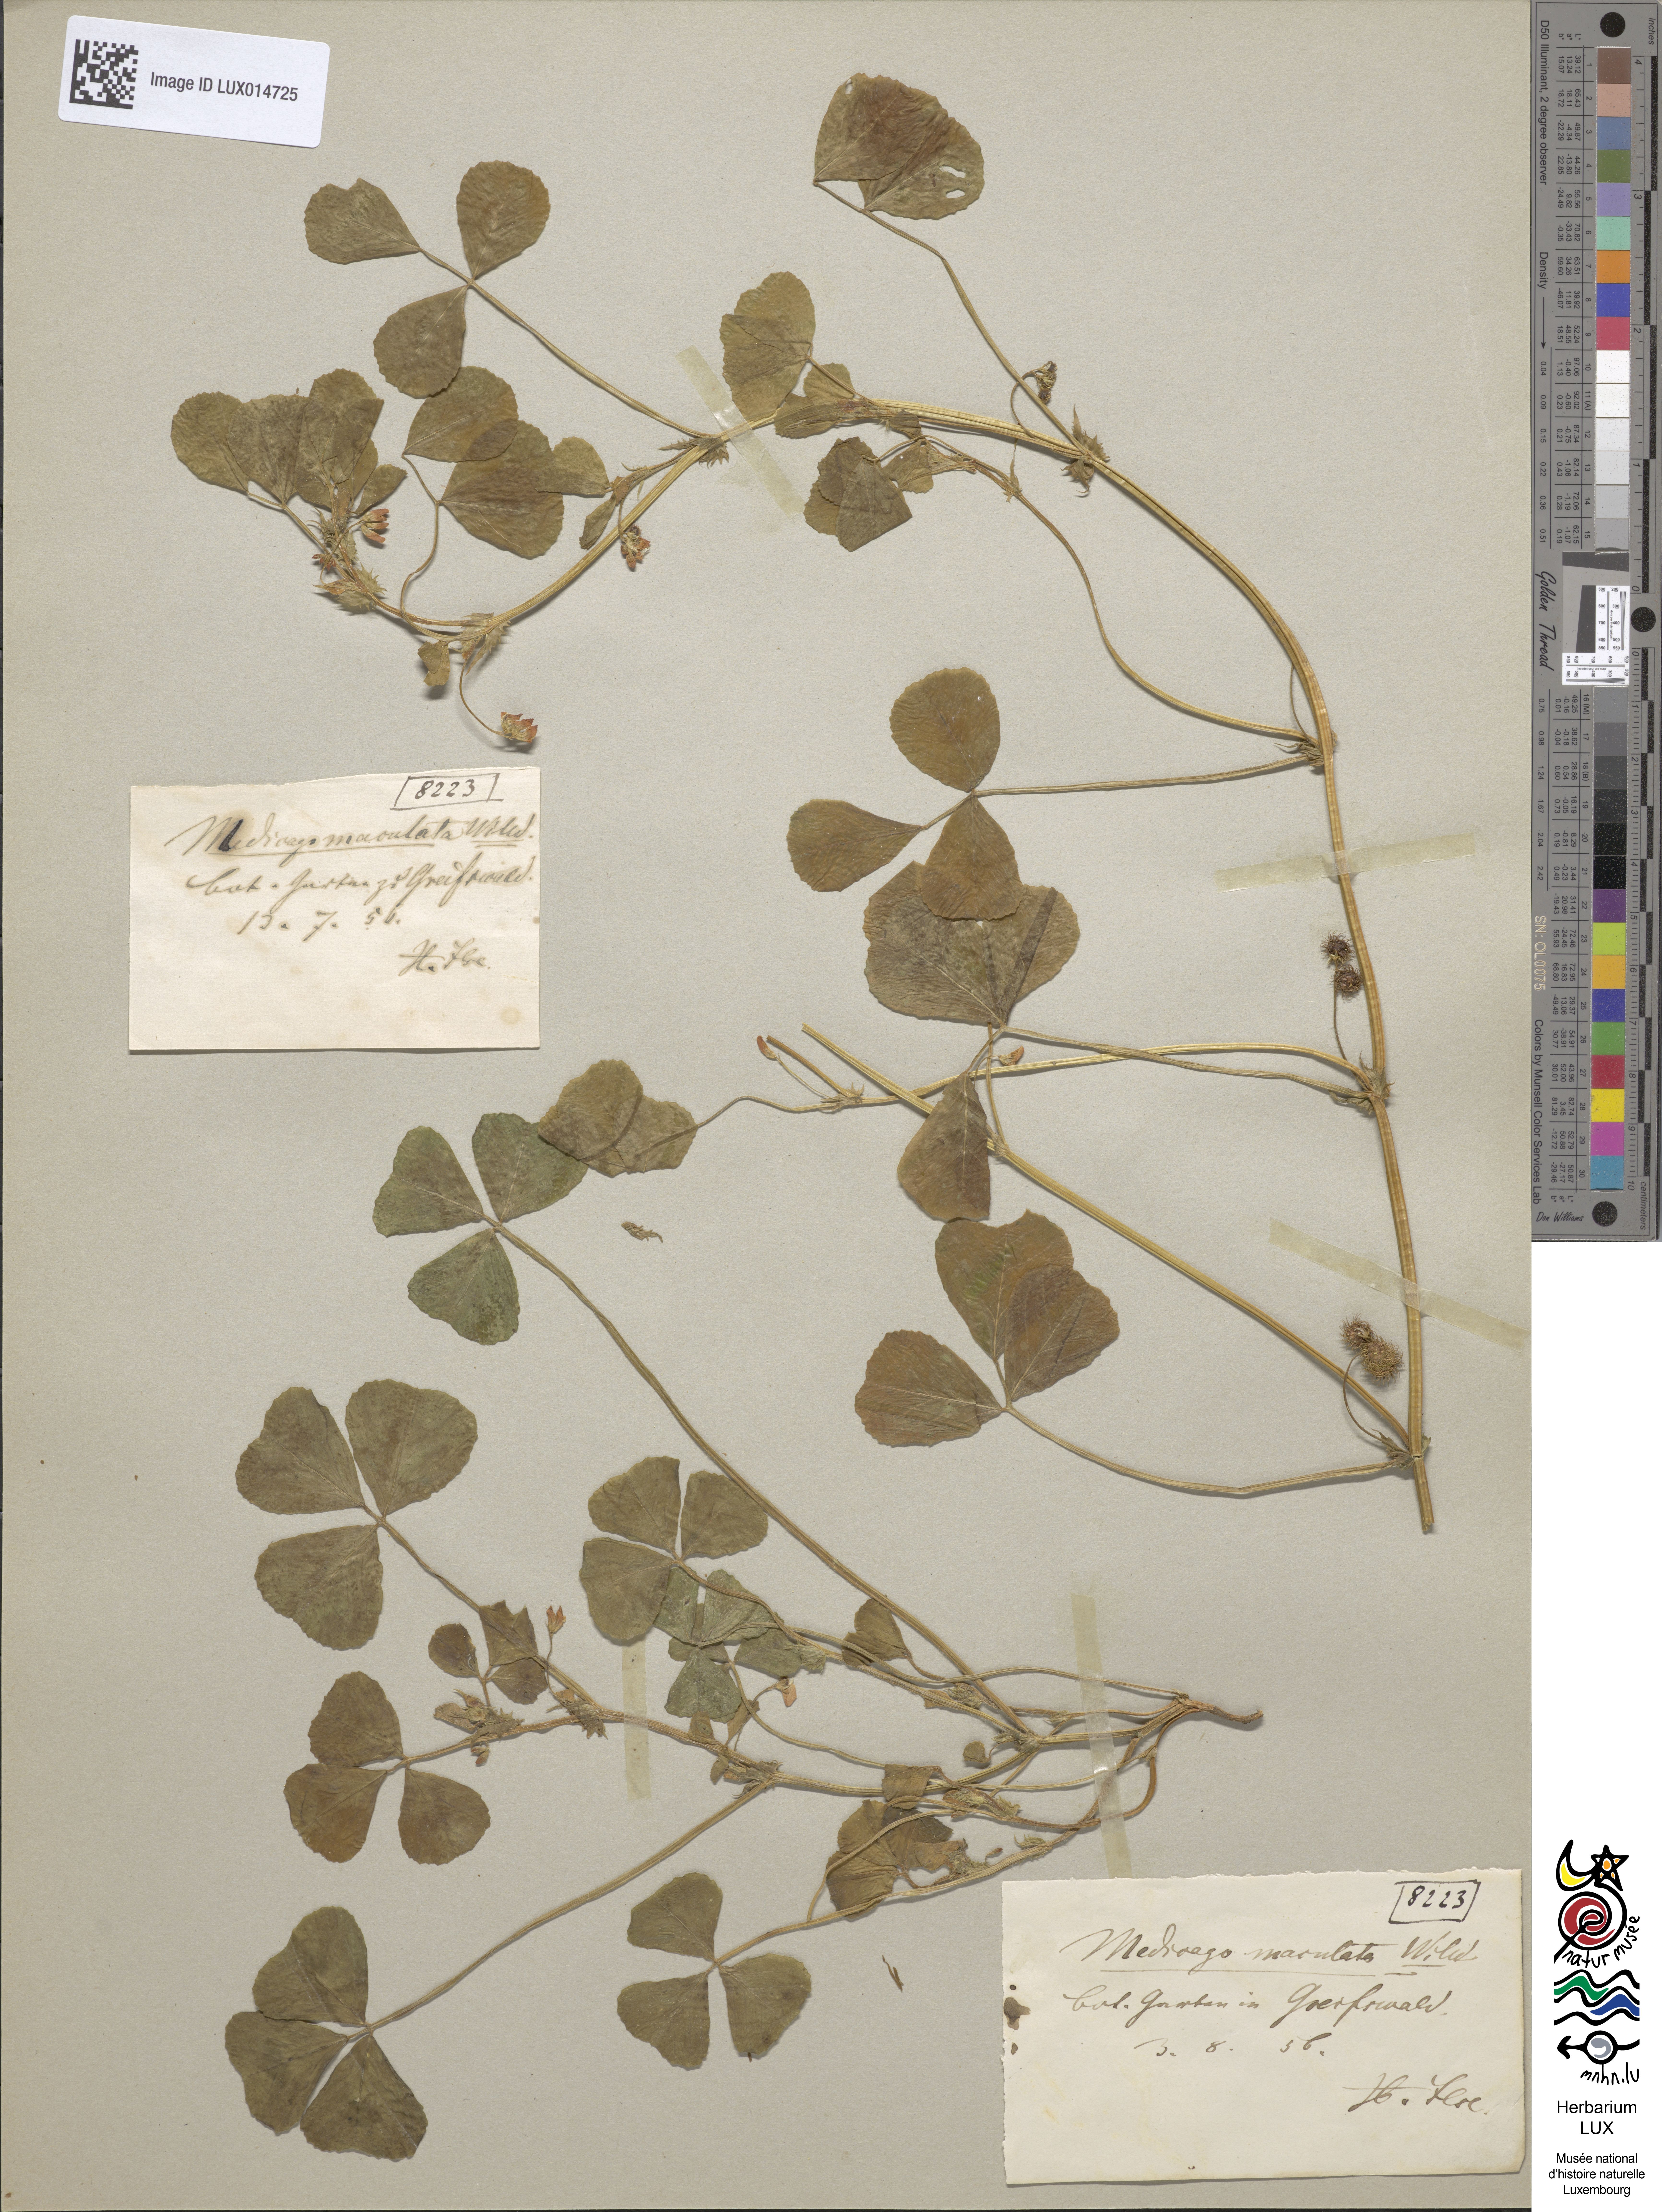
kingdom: Plantae
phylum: Tracheophyta
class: Magnoliopsida
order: Fabales
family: Fabaceae
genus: Medicago
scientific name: Medicago arabica
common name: Spotted medick
